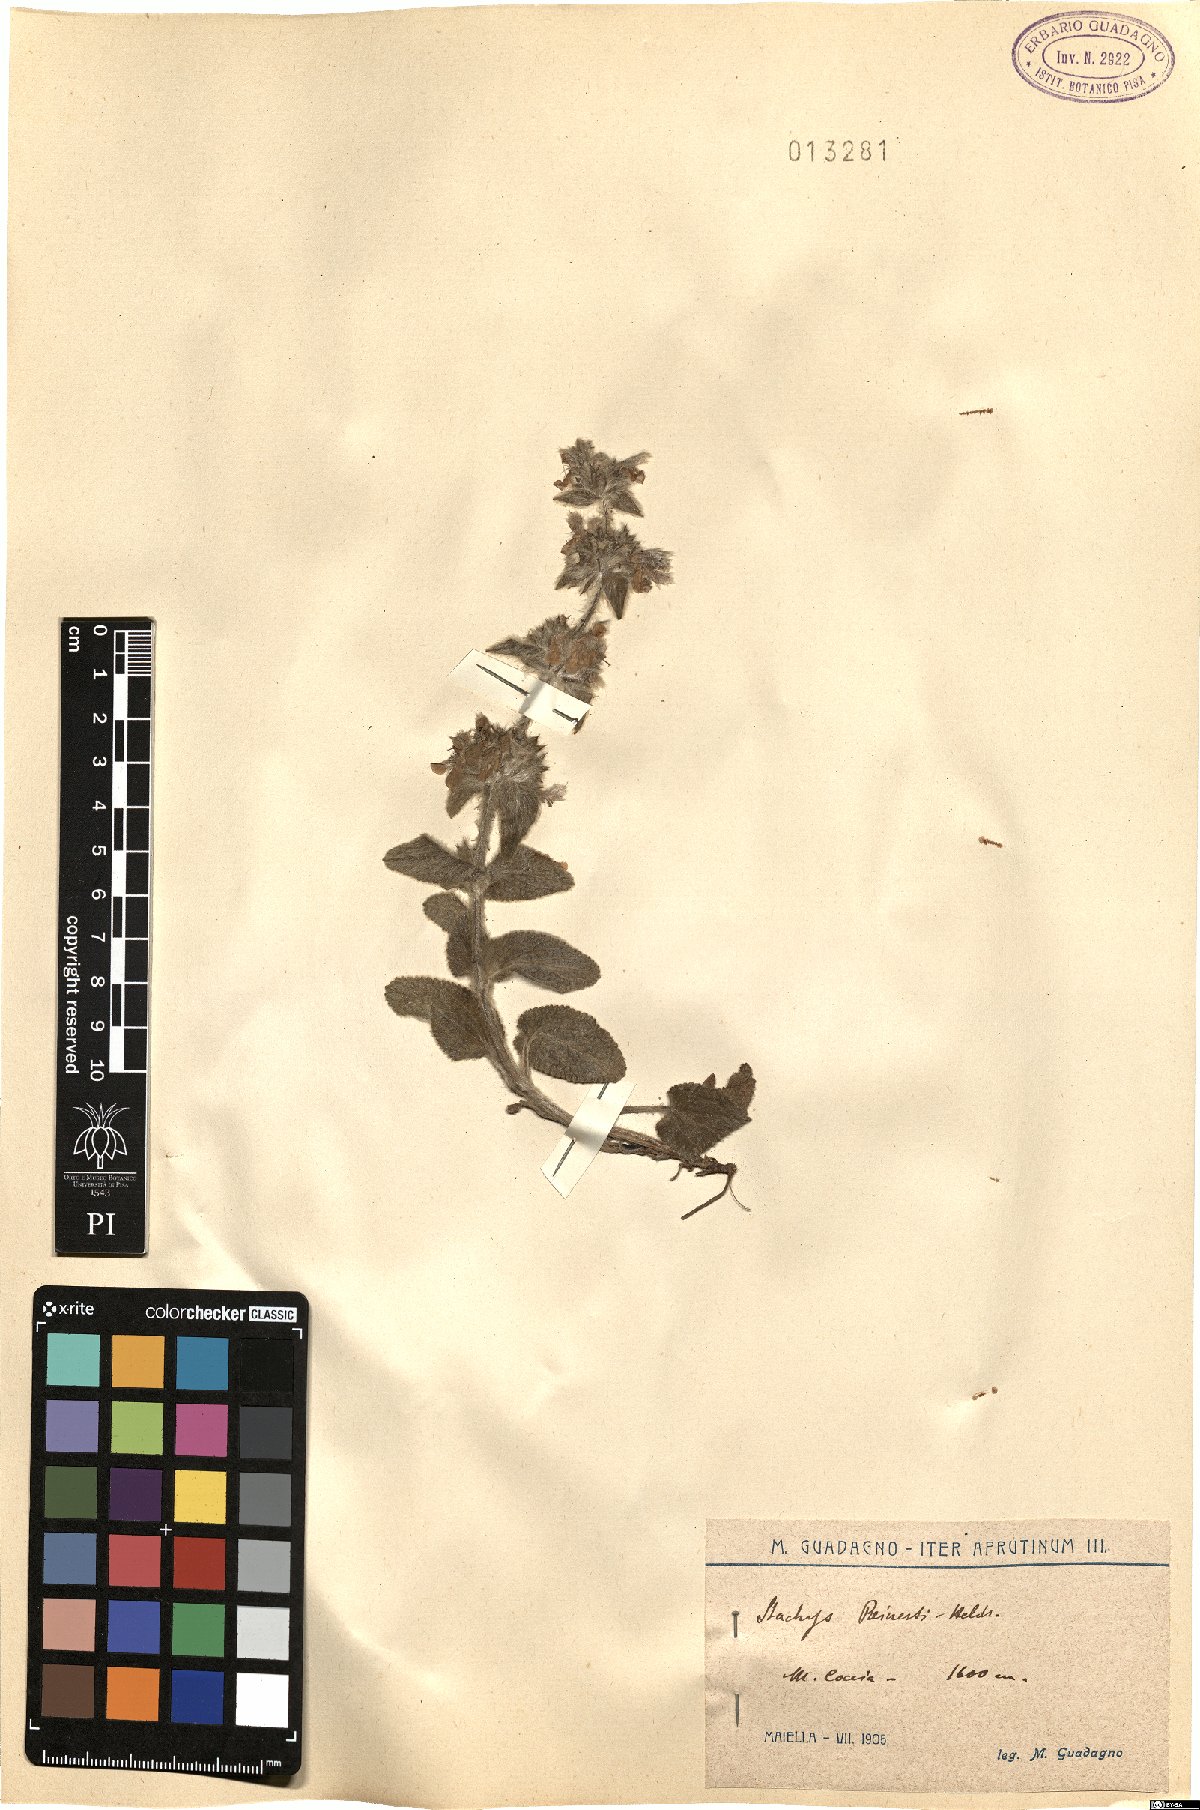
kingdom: Plantae
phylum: Tracheophyta
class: Magnoliopsida
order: Lamiales
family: Lamiaceae
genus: Stachys
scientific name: Stachys tymphaea
